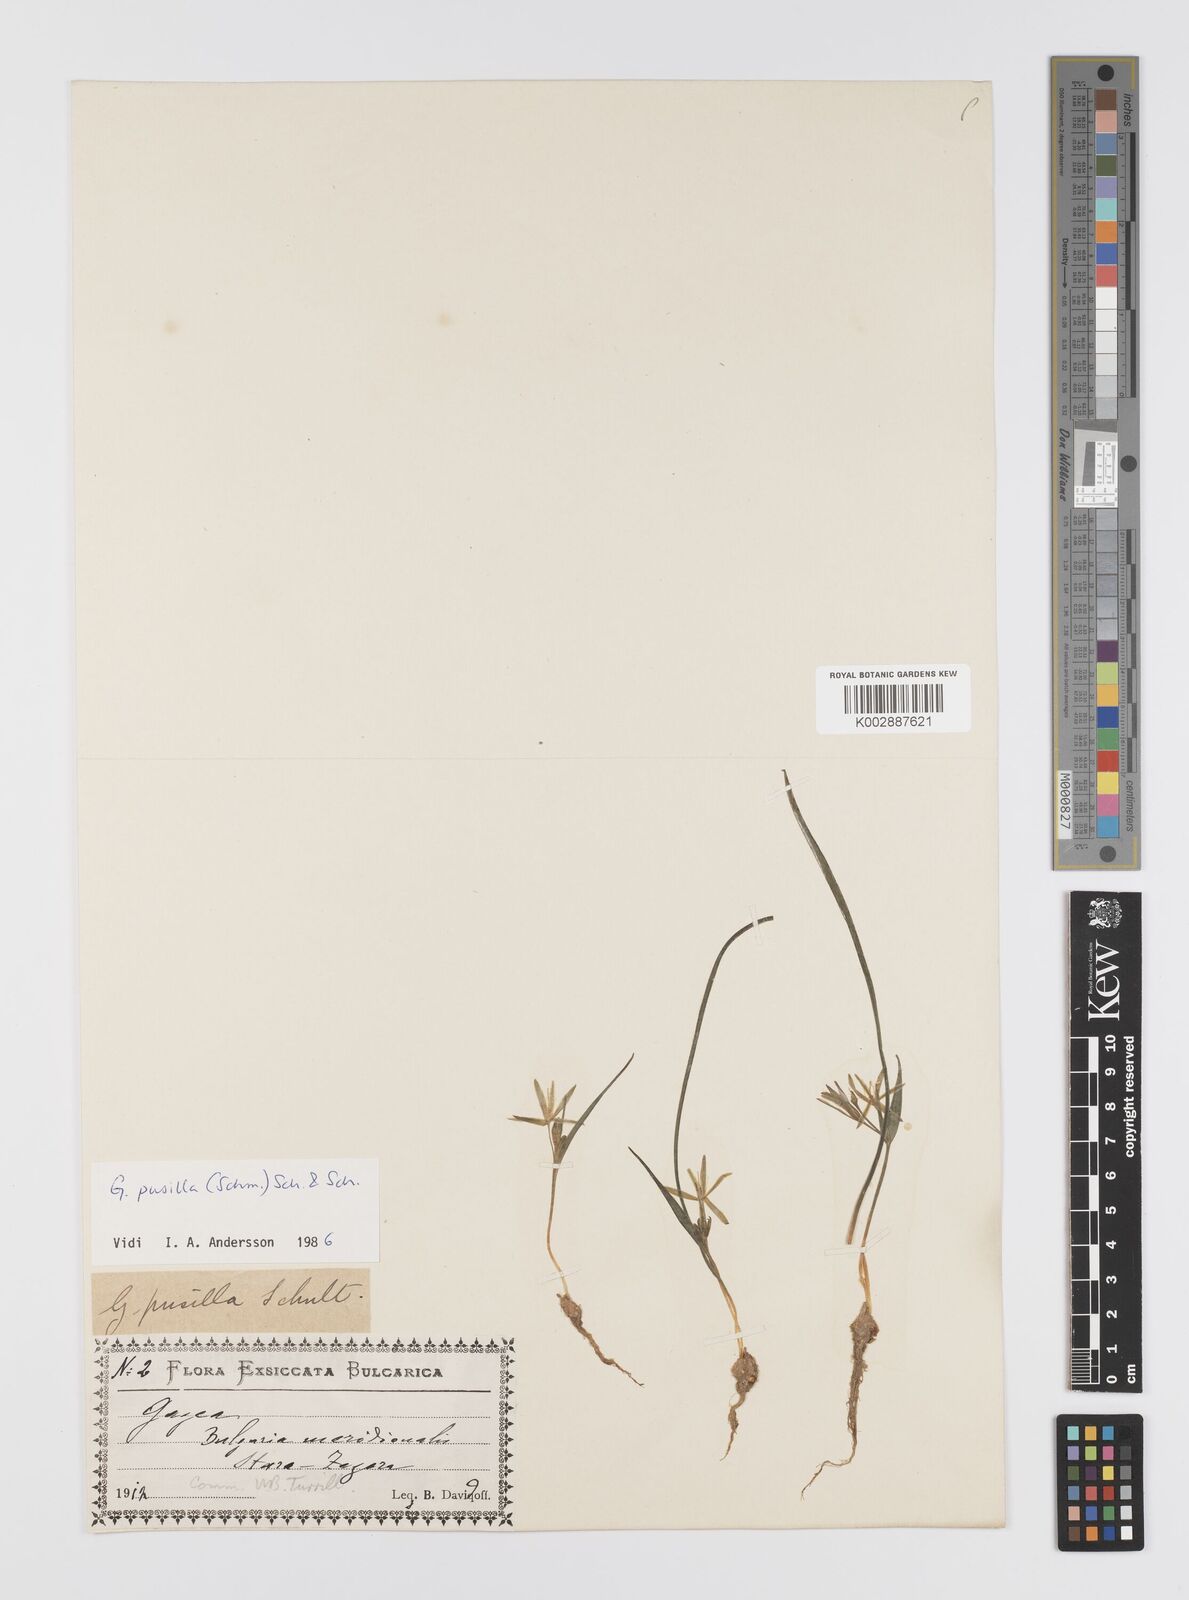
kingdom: Plantae
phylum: Tracheophyta
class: Liliopsida
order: Liliales
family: Liliaceae
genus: Gagea
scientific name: Gagea pusilla
